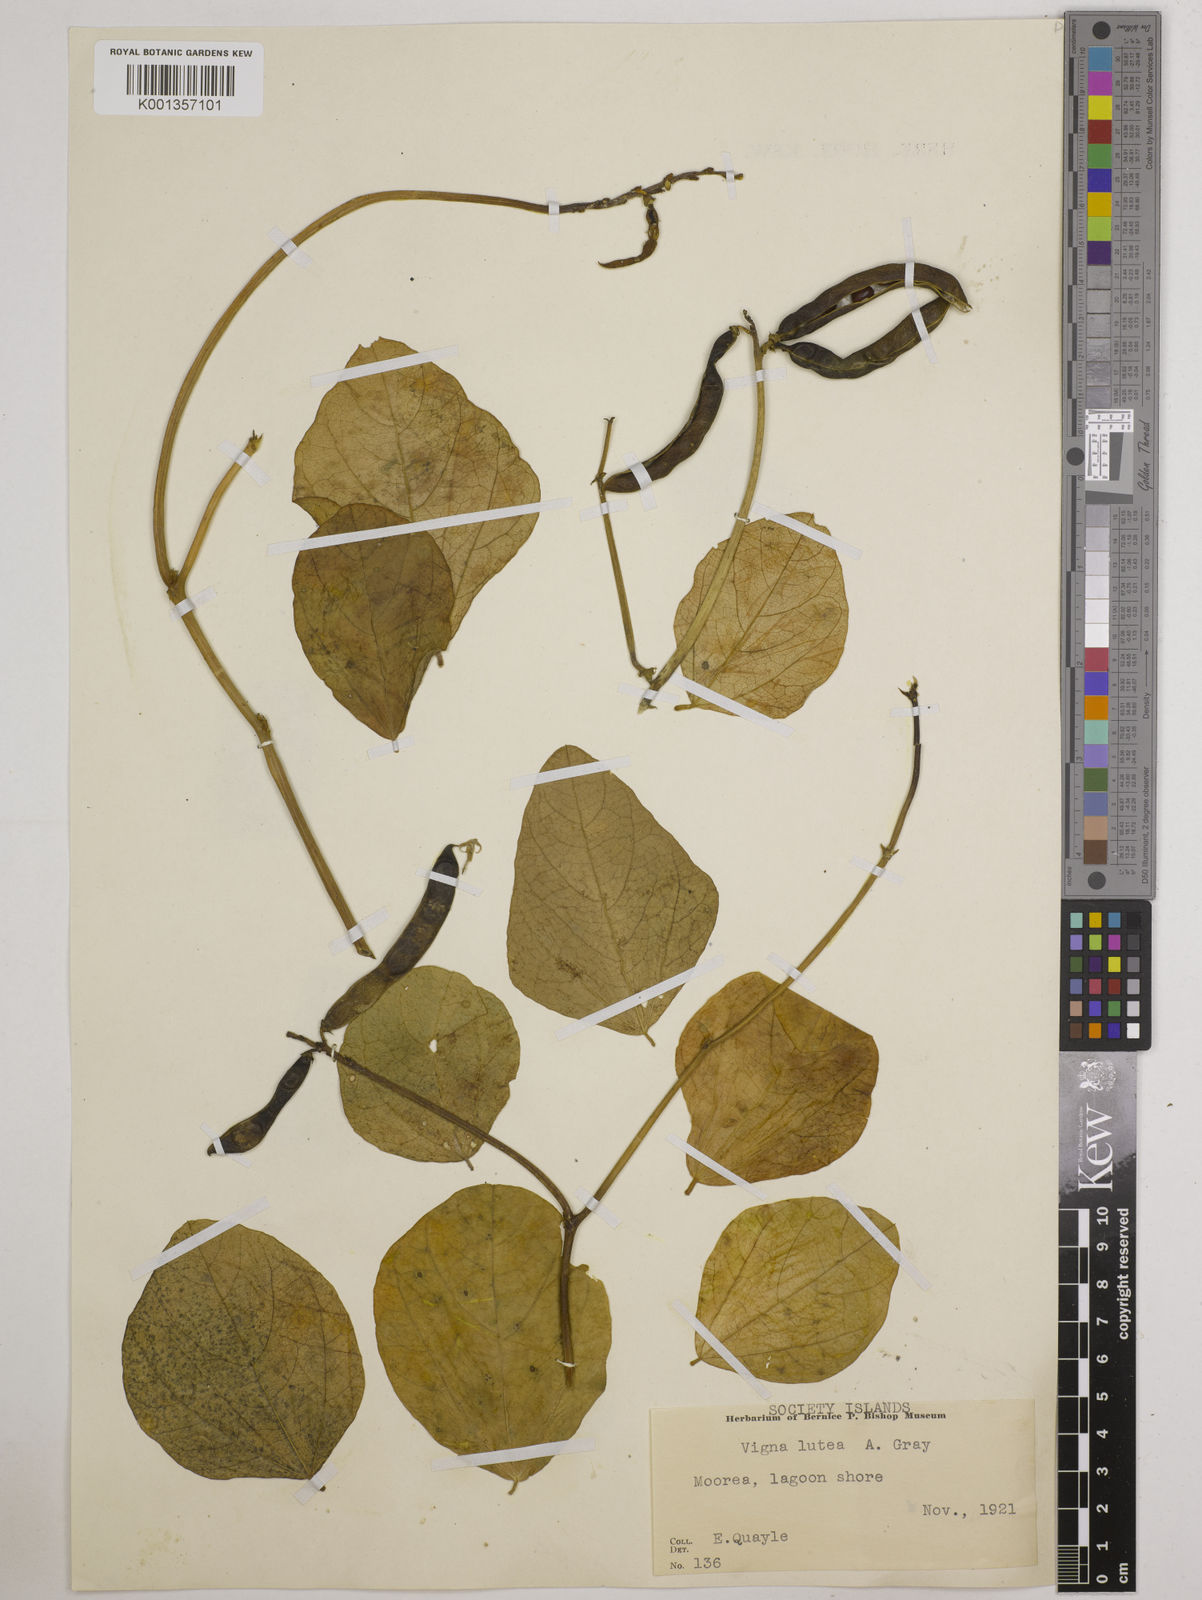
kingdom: Plantae
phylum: Tracheophyta
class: Magnoliopsida
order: Fabales
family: Fabaceae
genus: Vigna
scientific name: Vigna marina
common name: Dune-bean
